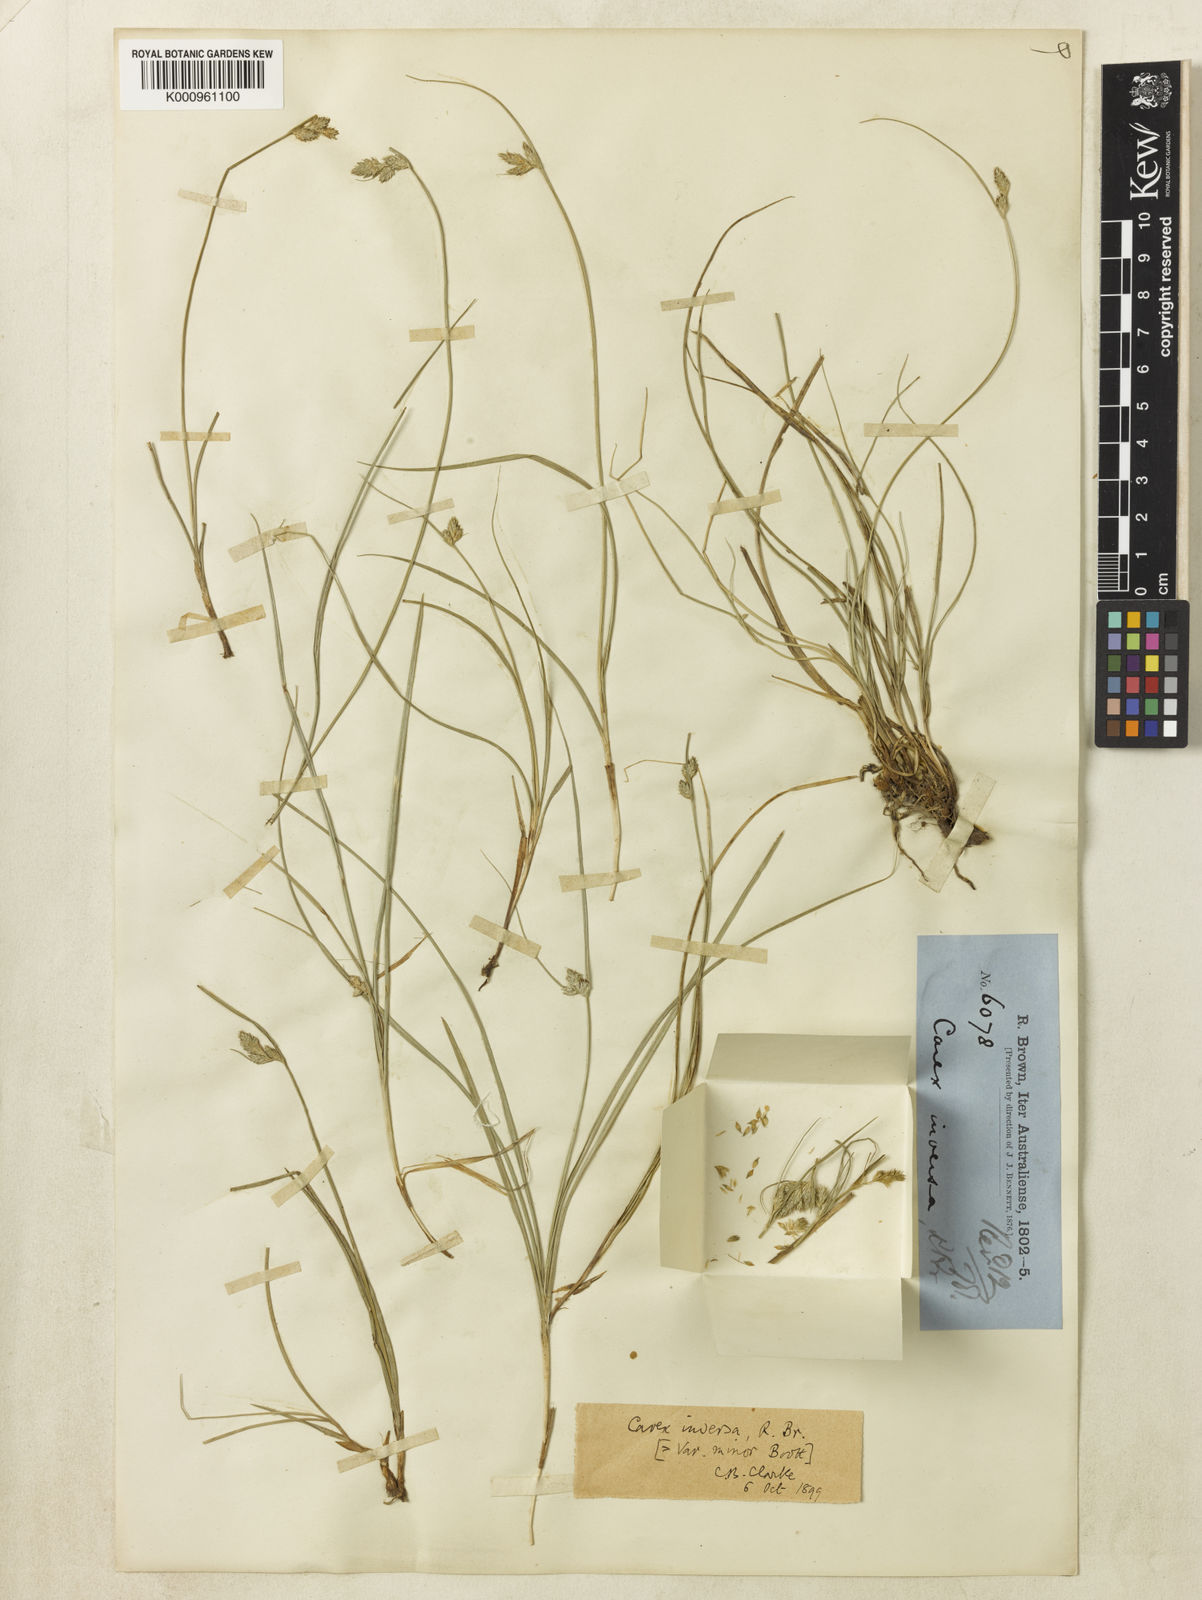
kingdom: Plantae
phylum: Tracheophyta
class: Liliopsida
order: Poales
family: Cyperaceae
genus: Carex
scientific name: Carex inversa
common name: Knob sedge
